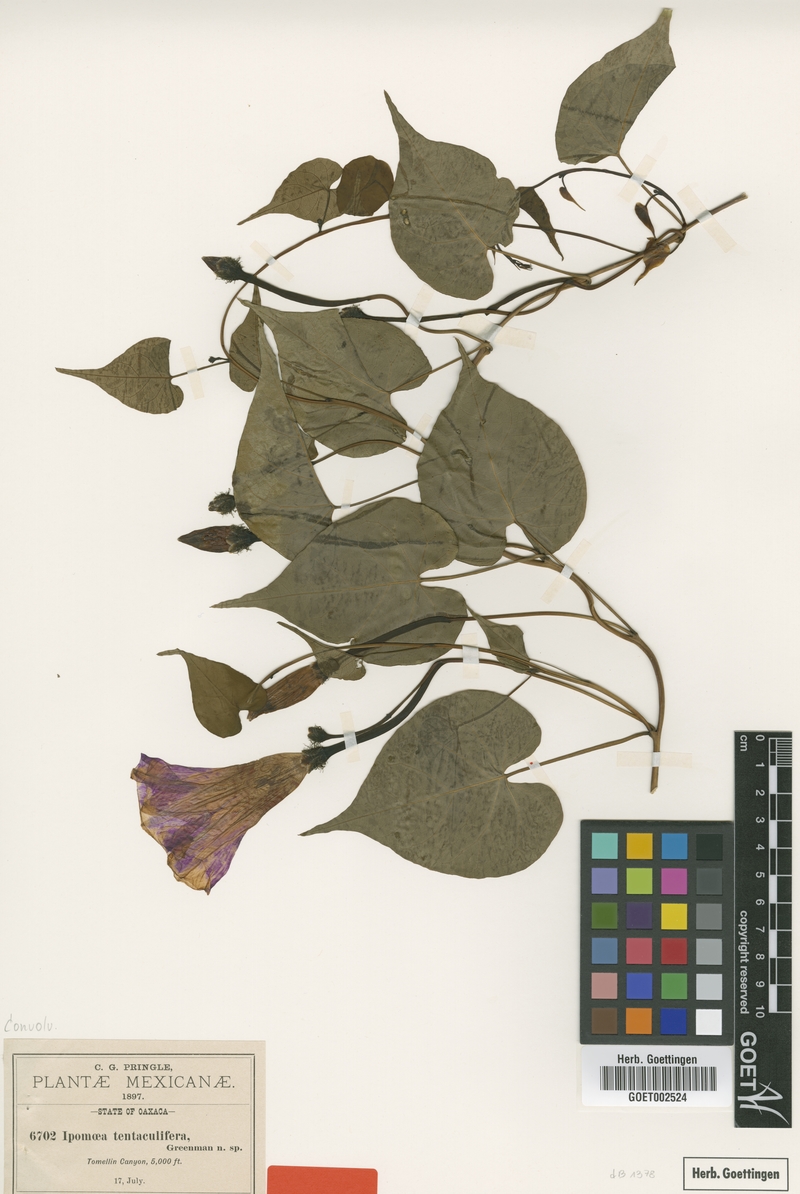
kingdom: Plantae
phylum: Tracheophyta
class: Magnoliopsida
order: Solanales
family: Convolvulaceae
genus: Ipomoea
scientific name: Ipomoea tentaculifera
